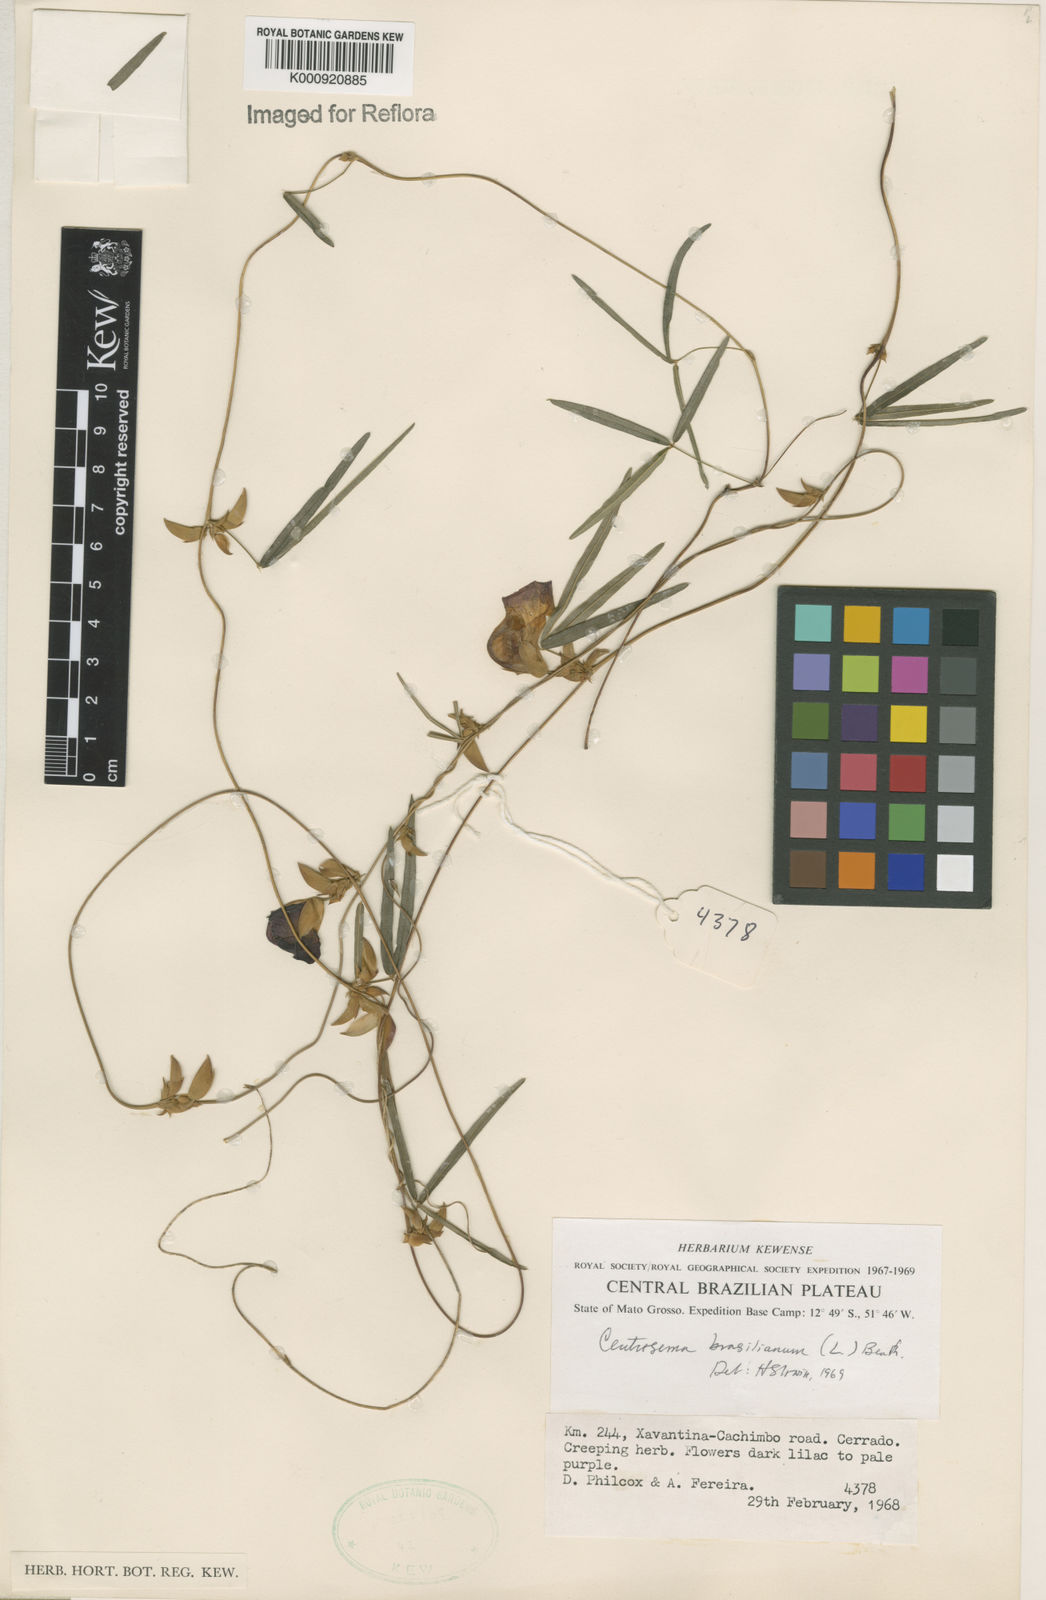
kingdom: Plantae
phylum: Tracheophyta
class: Magnoliopsida
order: Fabales
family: Fabaceae
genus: Centrosema
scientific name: Centrosema
